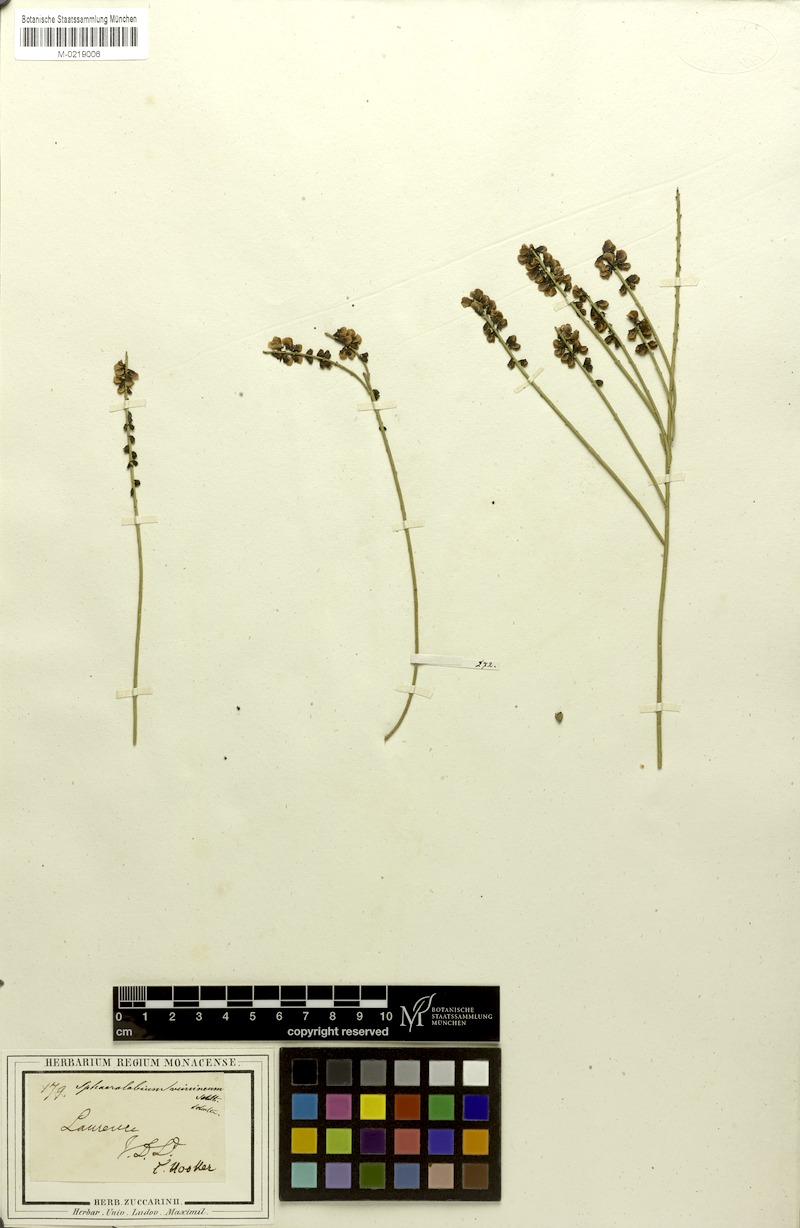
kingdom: Plantae
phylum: Tracheophyta
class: Magnoliopsida
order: Fabales
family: Fabaceae
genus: Sphaerolobium
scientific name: Sphaerolobium vimineum
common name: Leafless globe-pea
